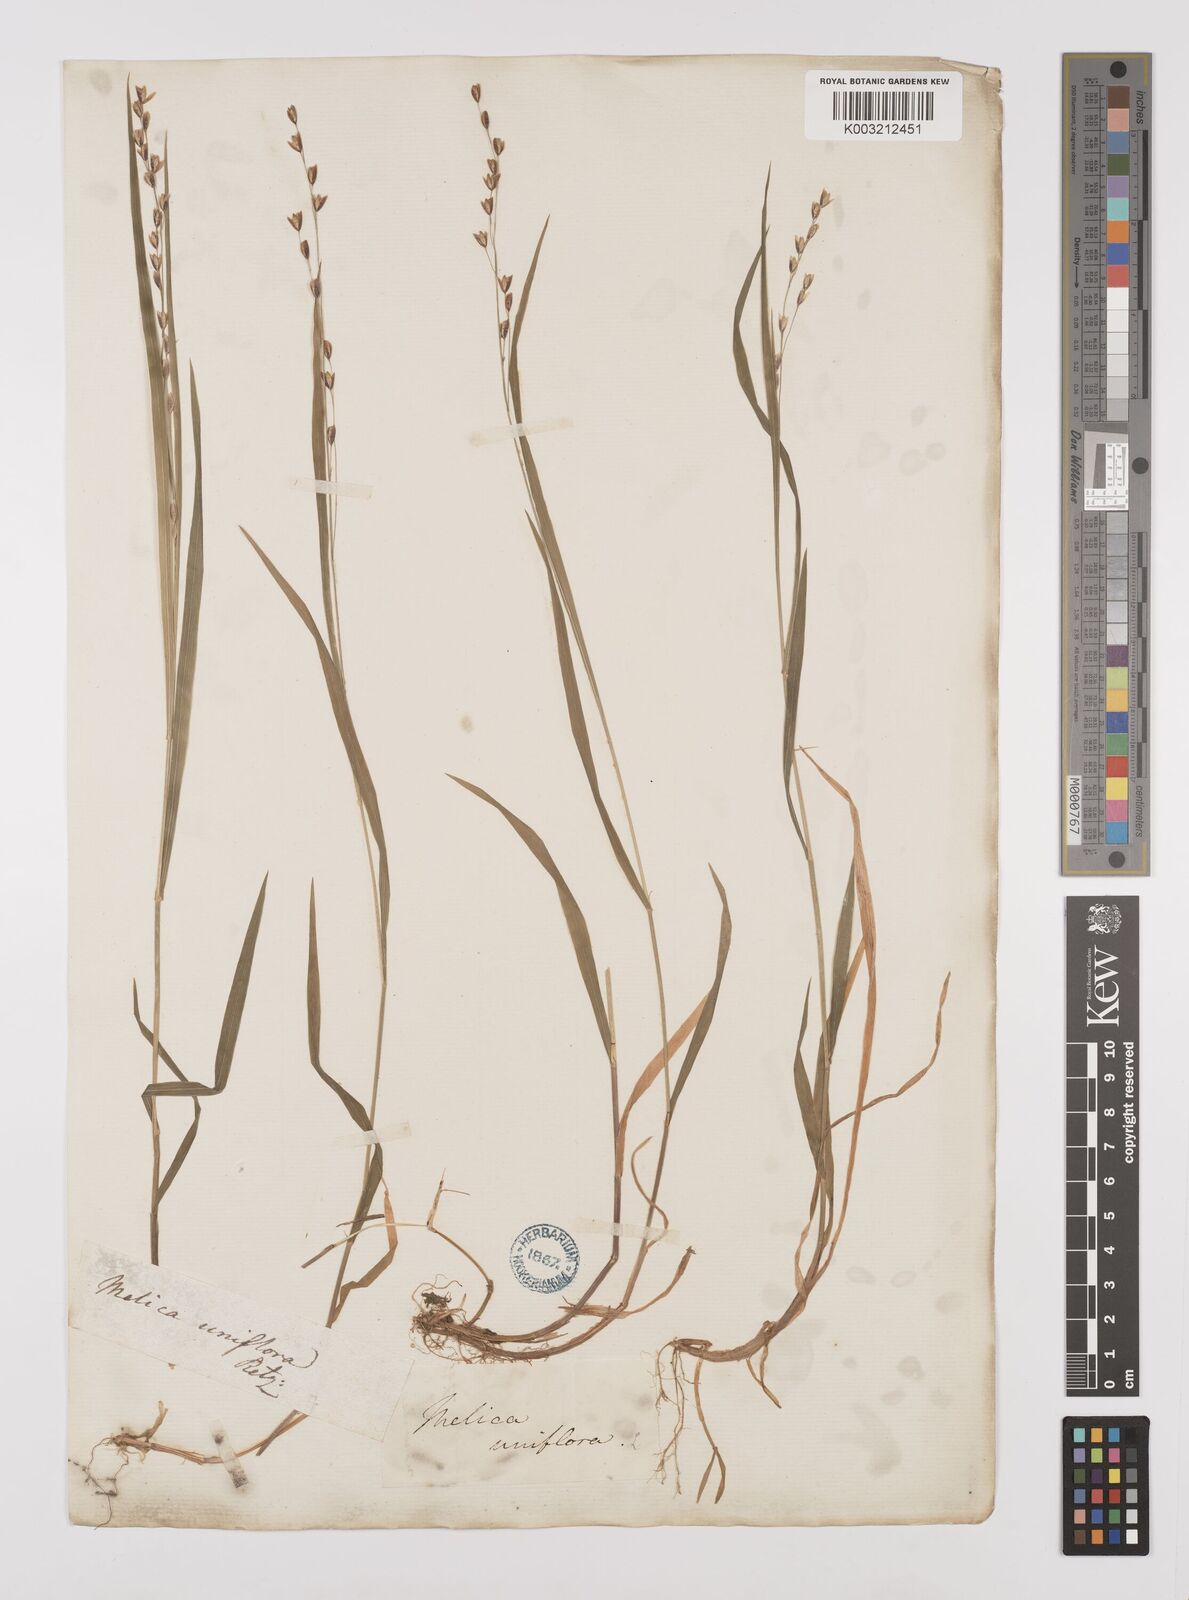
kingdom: Plantae
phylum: Tracheophyta
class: Liliopsida
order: Poales
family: Poaceae
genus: Melica
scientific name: Melica uniflora
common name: Wood melick
